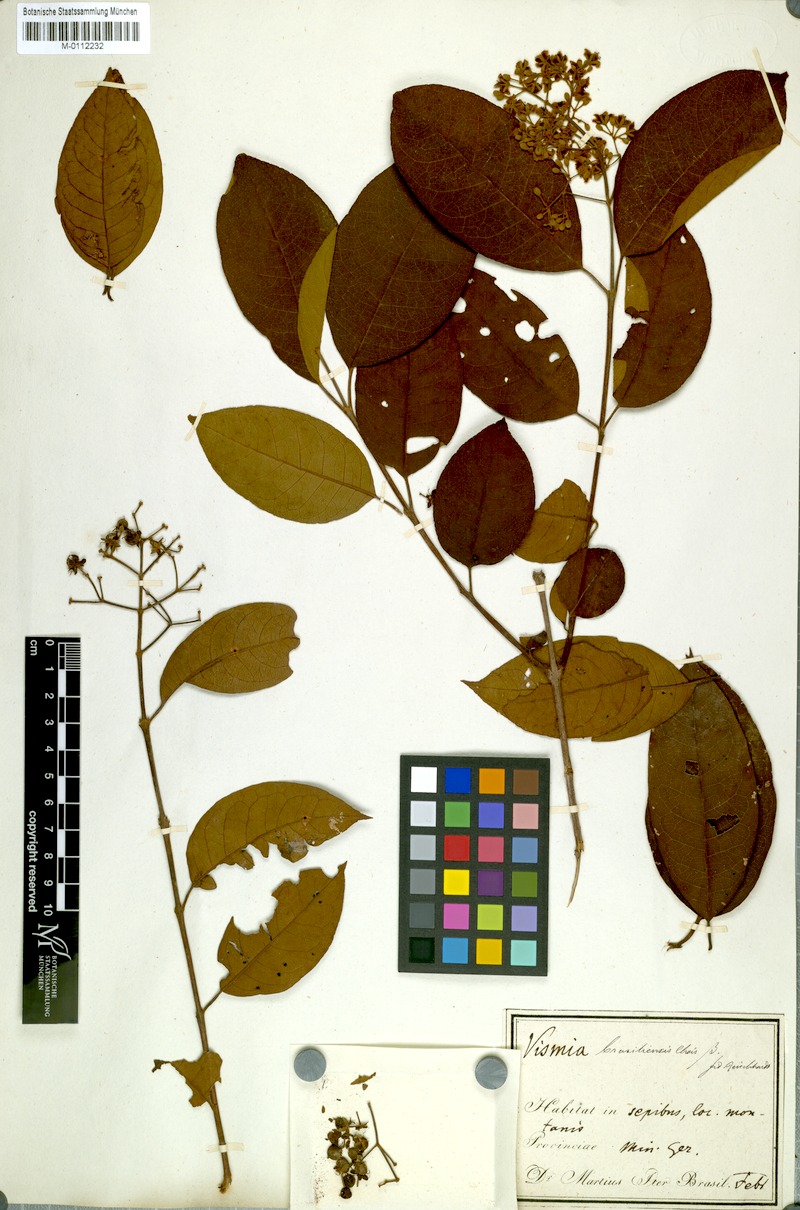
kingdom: Plantae
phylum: Tracheophyta
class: Magnoliopsida
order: Malpighiales
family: Hypericaceae
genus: Vismia
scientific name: Vismia brasiliensis
